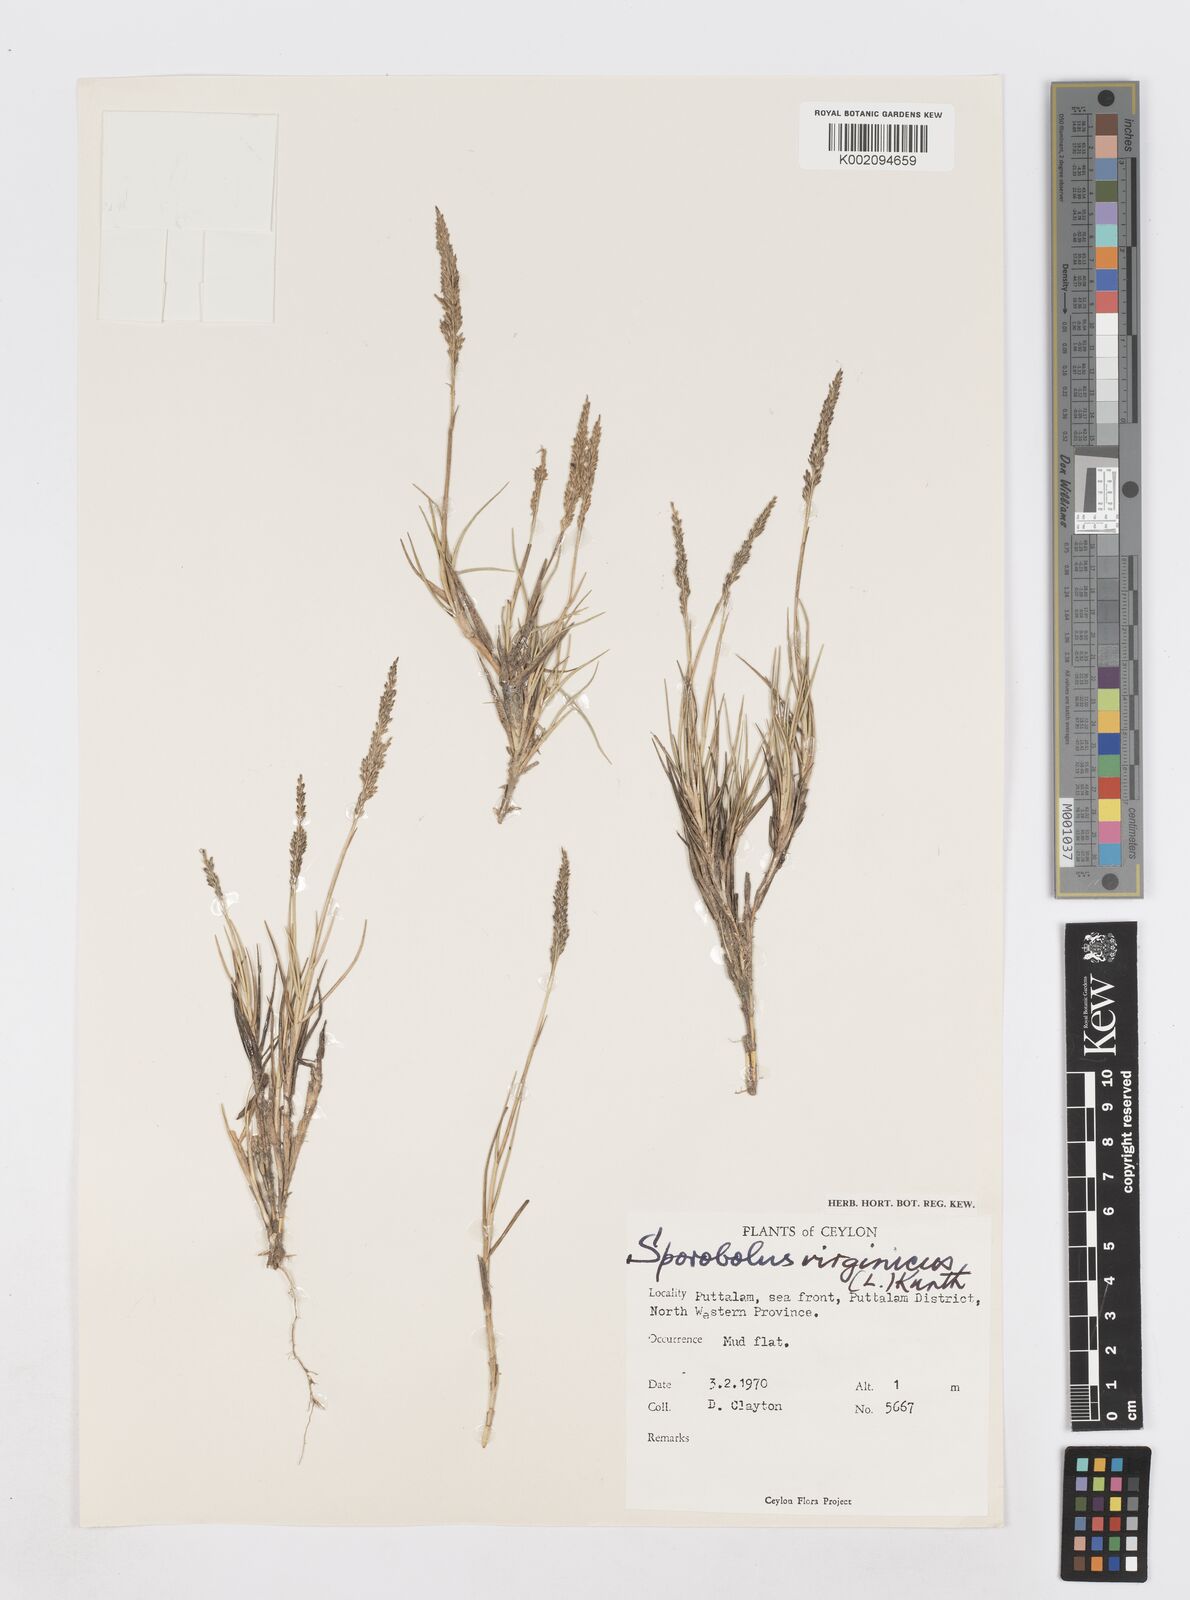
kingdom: Plantae
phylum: Tracheophyta
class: Liliopsida
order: Poales
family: Poaceae
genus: Sporobolus
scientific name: Sporobolus virginicus
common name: Beach dropseed
